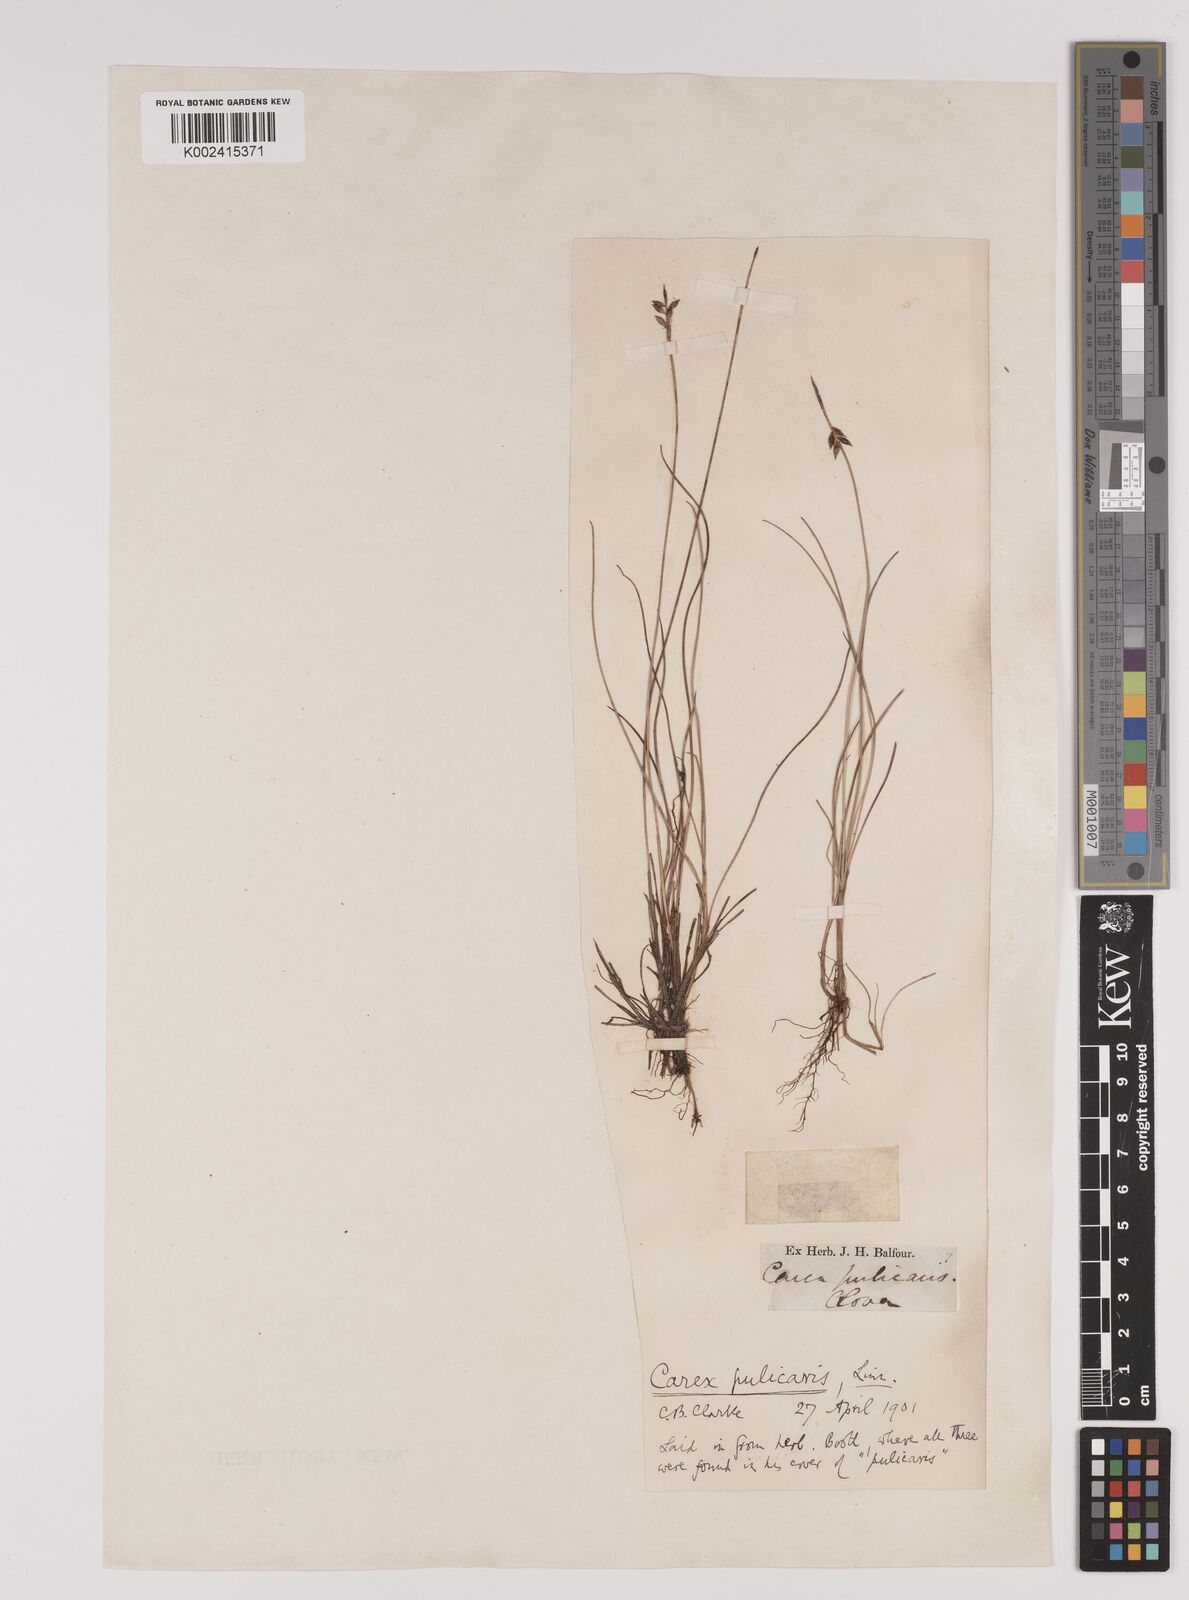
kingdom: Plantae
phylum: Tracheophyta
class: Liliopsida
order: Poales
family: Cyperaceae
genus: Carex
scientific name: Carex pulicaris
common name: Flea sedge
